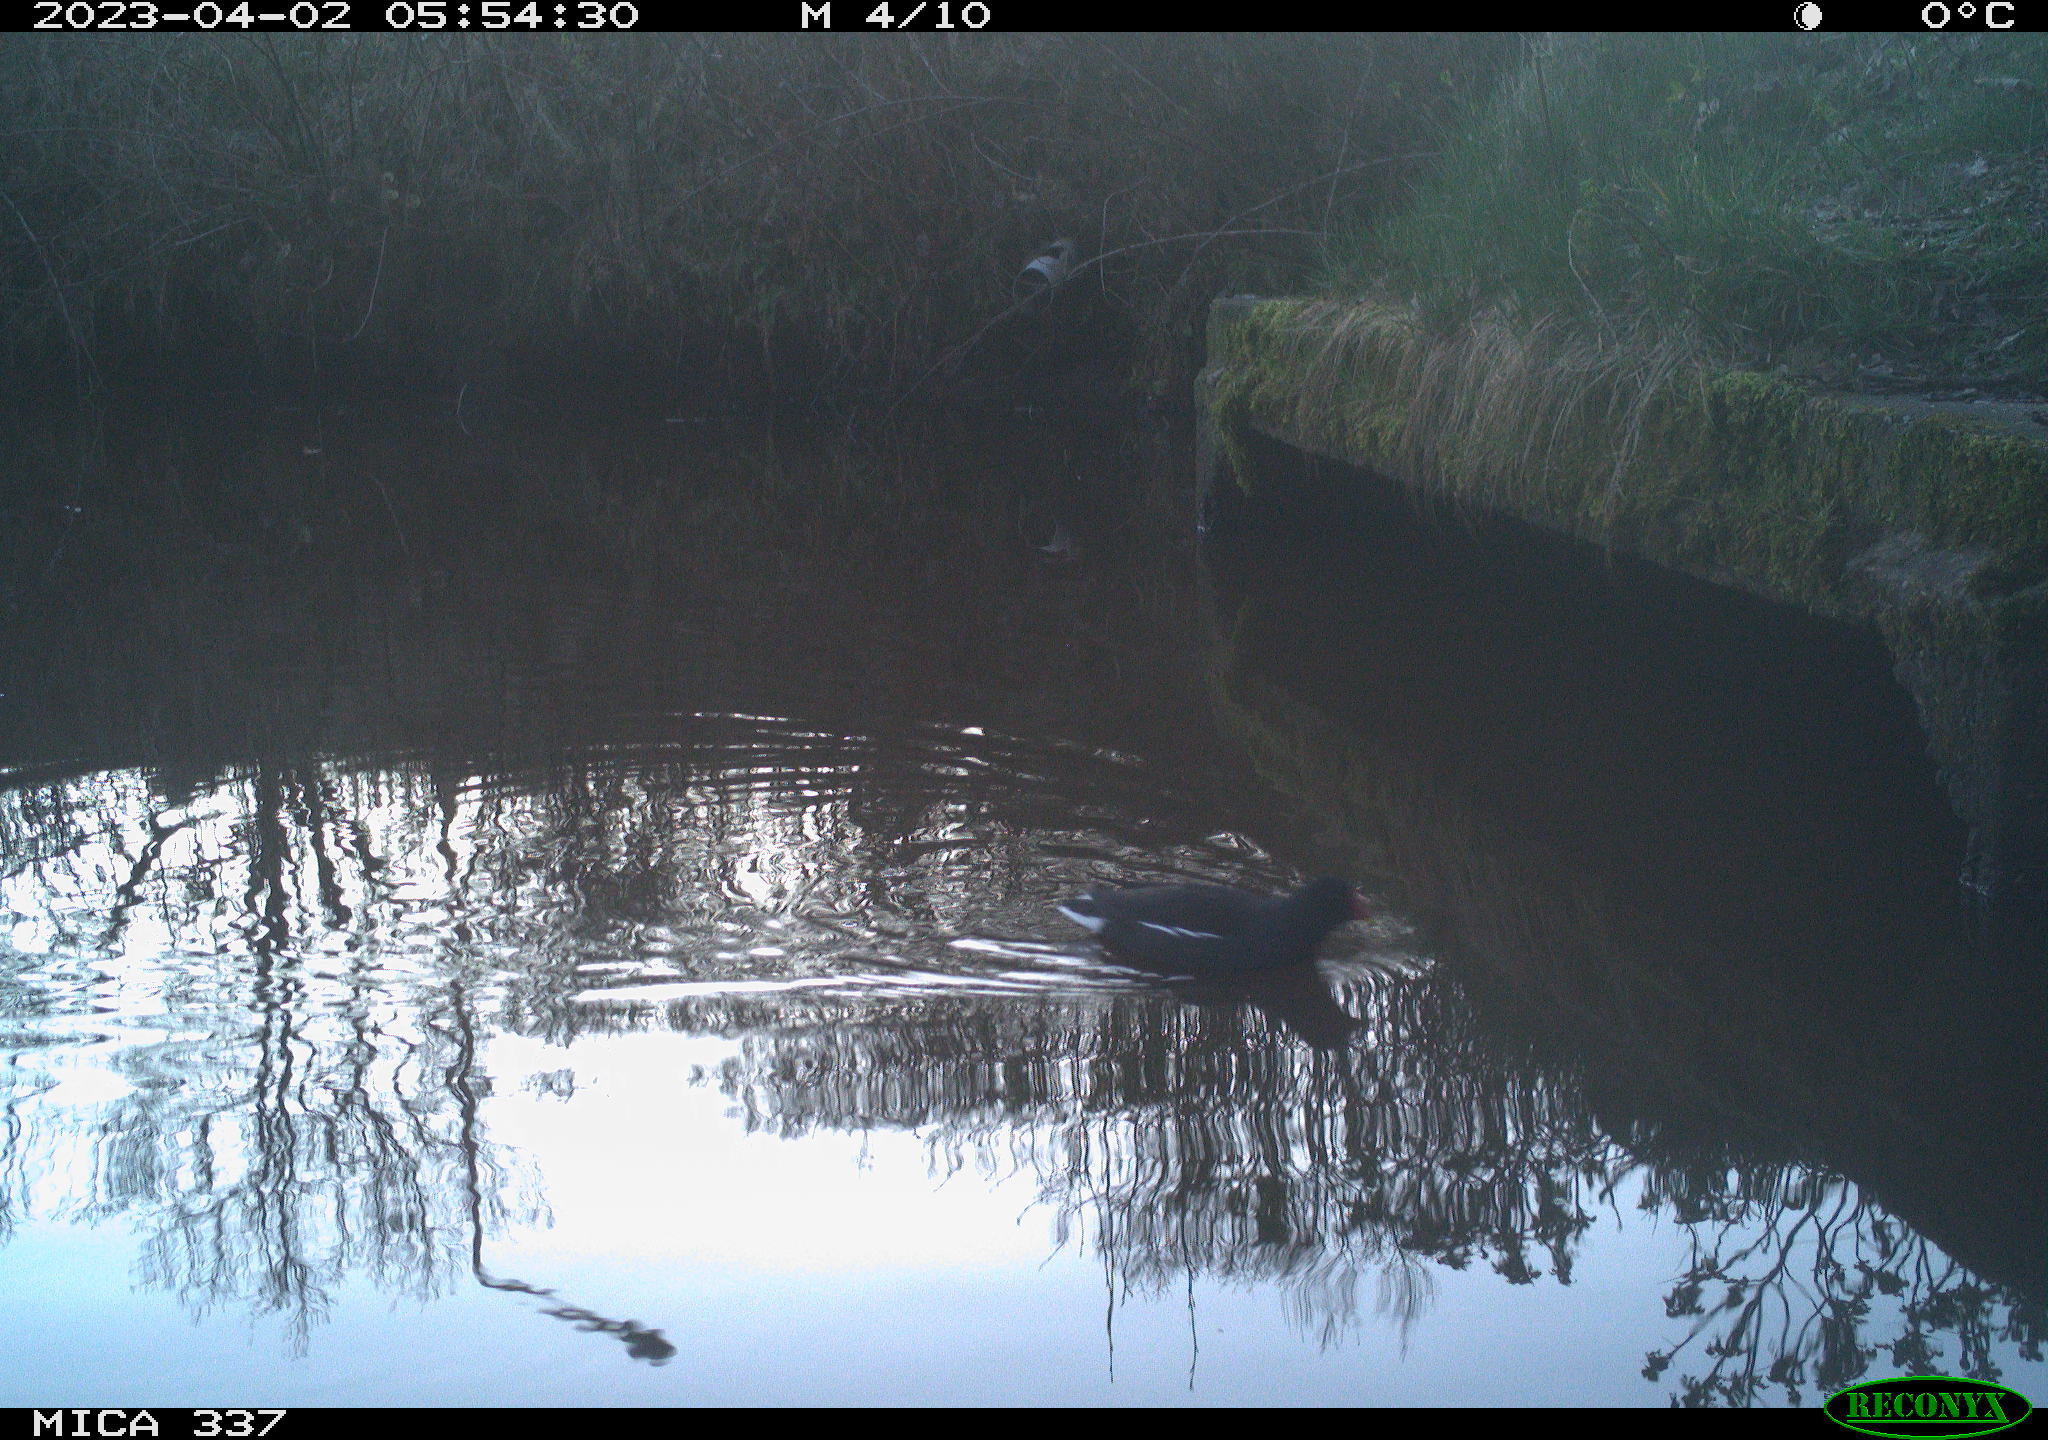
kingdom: Animalia
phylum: Chordata
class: Aves
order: Gruiformes
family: Rallidae
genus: Gallinula
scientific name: Gallinula chloropus
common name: Common moorhen
